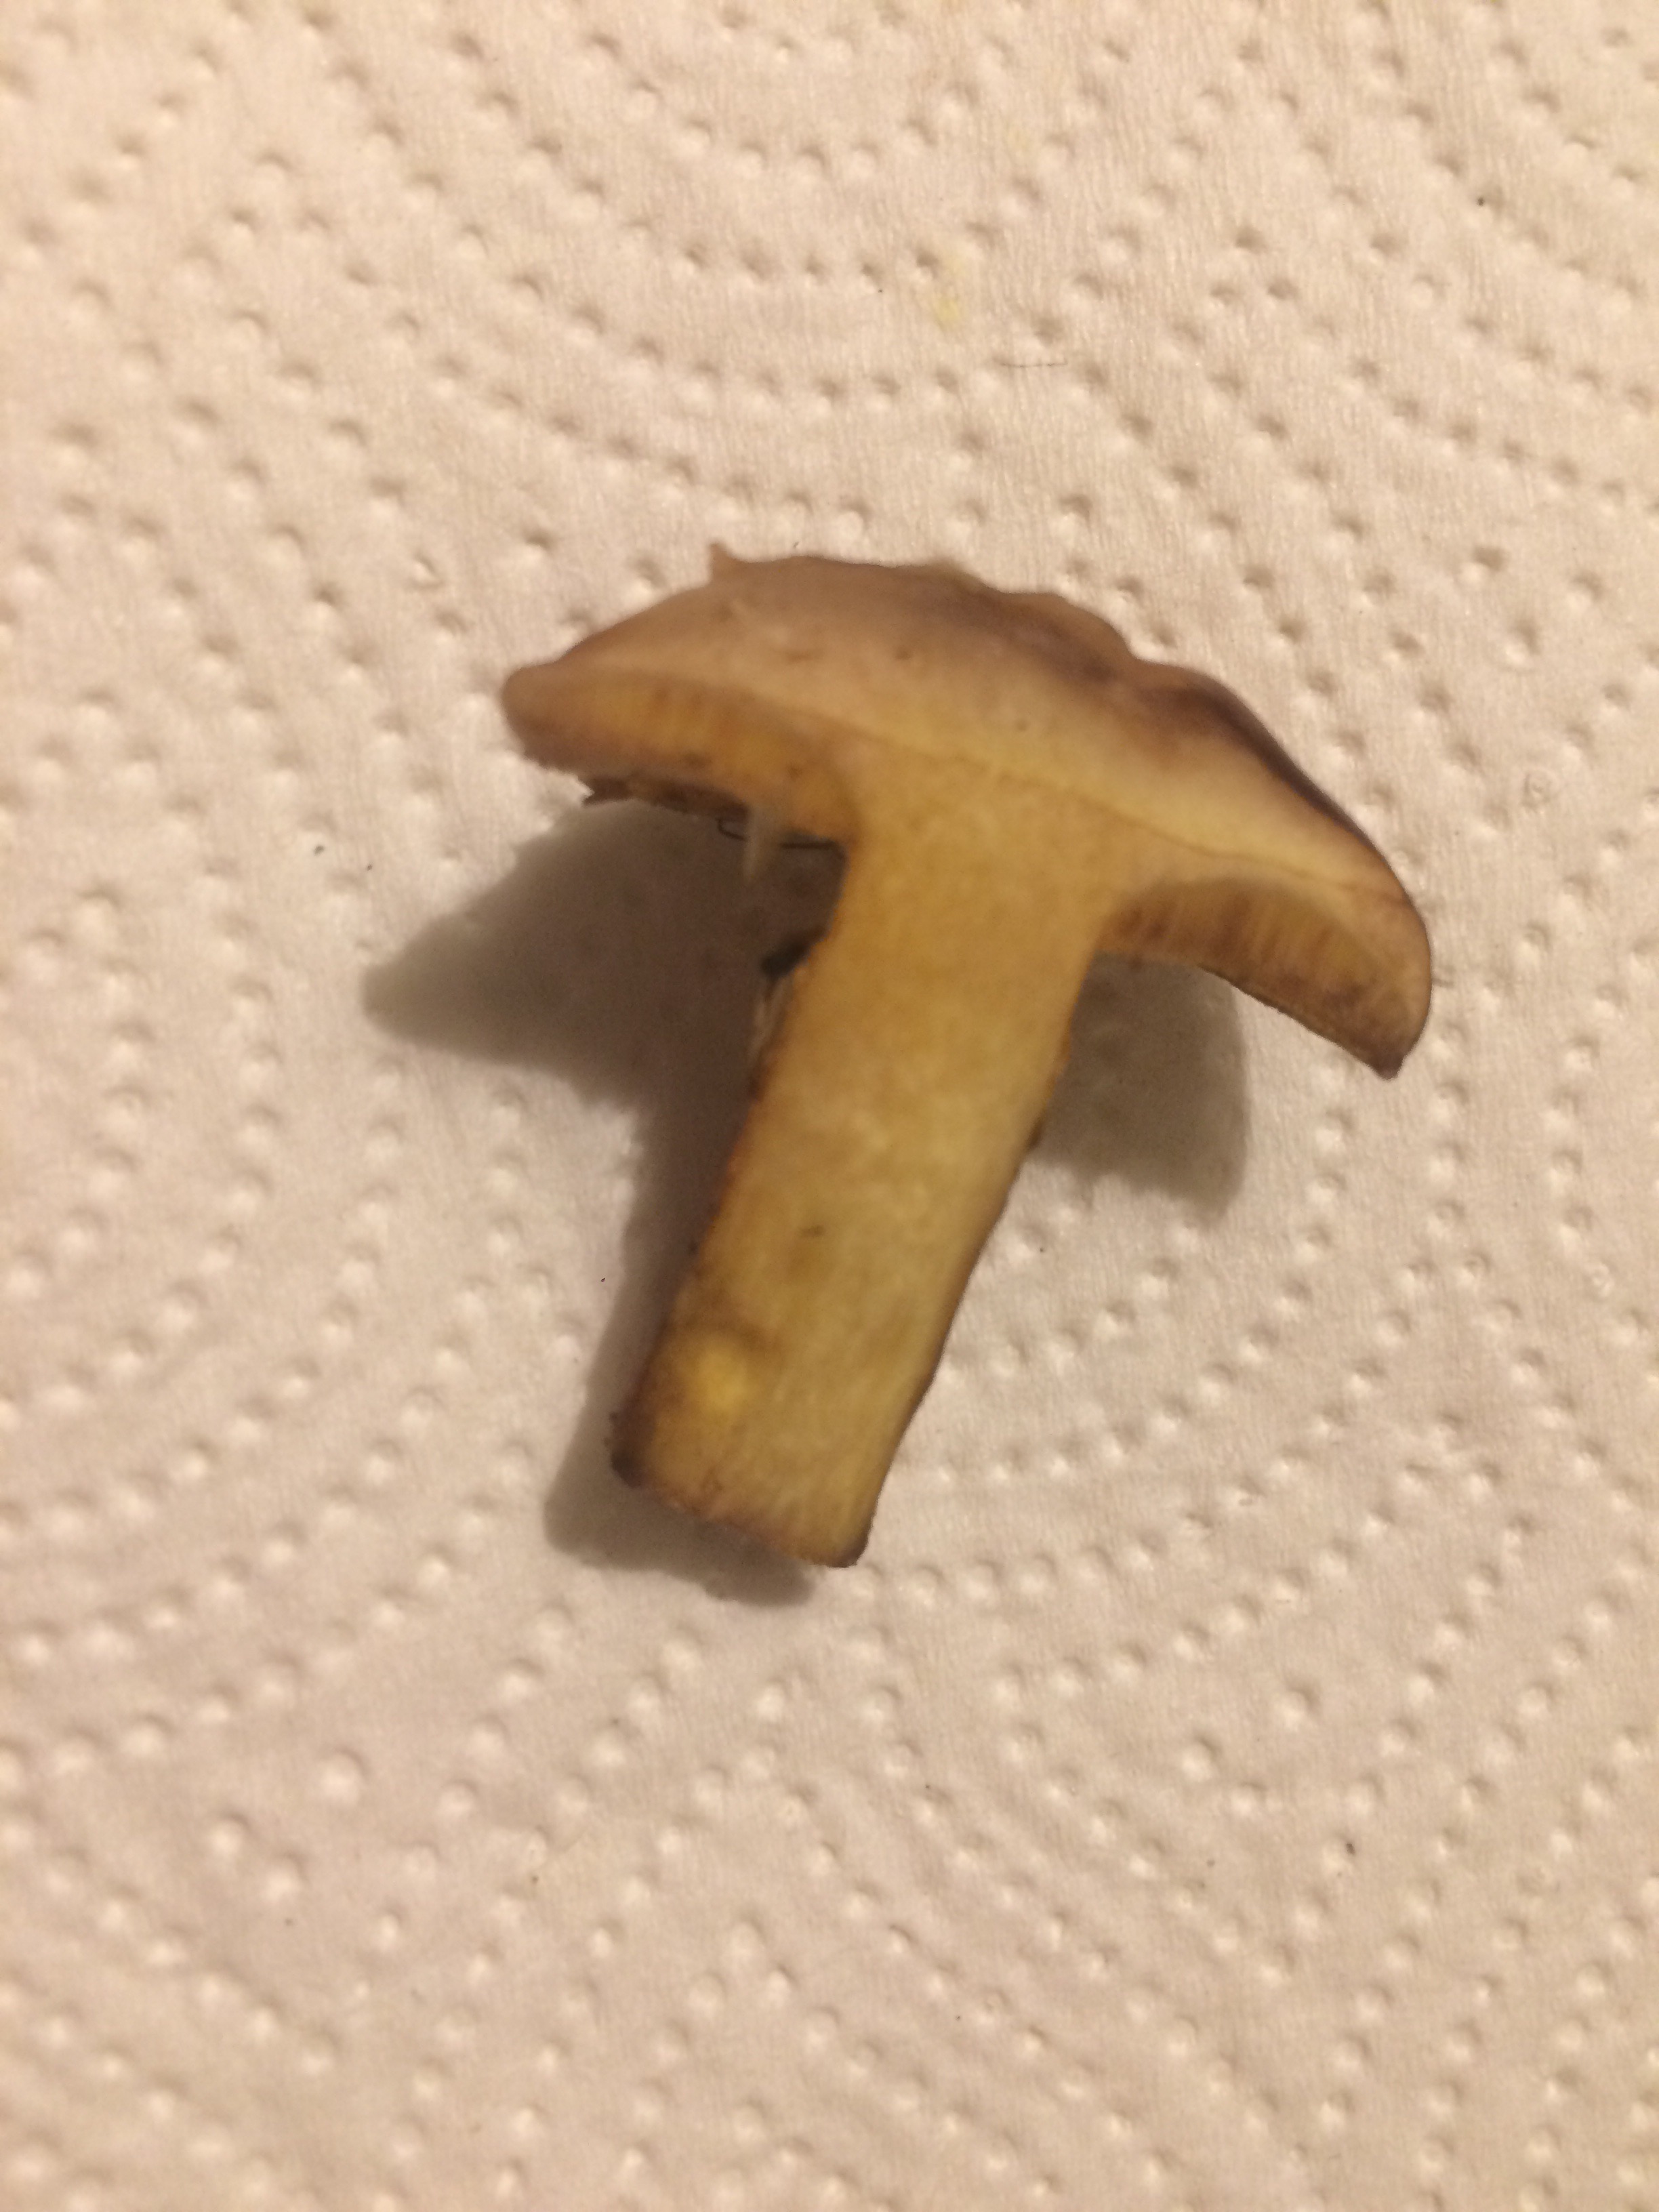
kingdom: Fungi
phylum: Basidiomycota
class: Agaricomycetes
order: Boletales
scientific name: Boletales
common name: rørhatordenen
